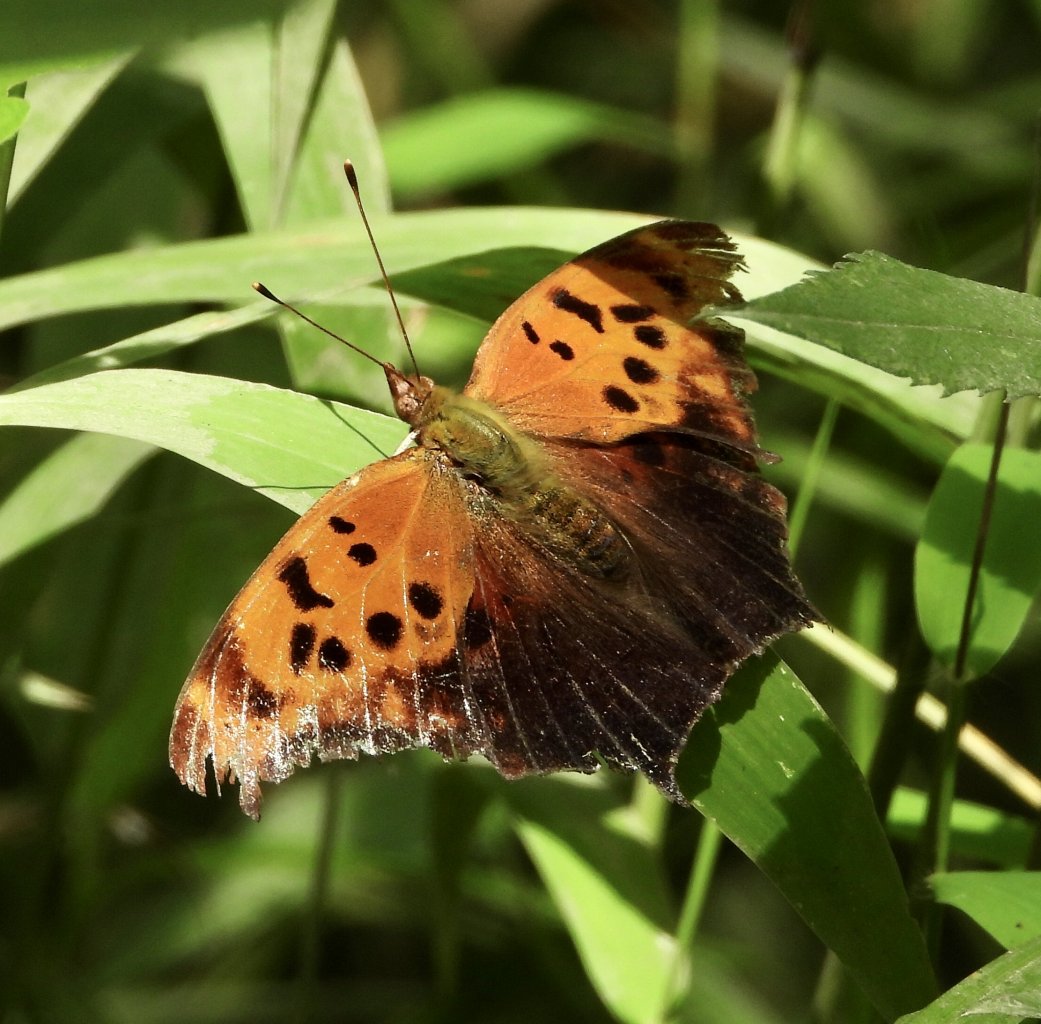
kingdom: Animalia
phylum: Arthropoda
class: Insecta
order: Lepidoptera
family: Nymphalidae
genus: Polygonia
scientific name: Polygonia interrogationis
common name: Question Mark
